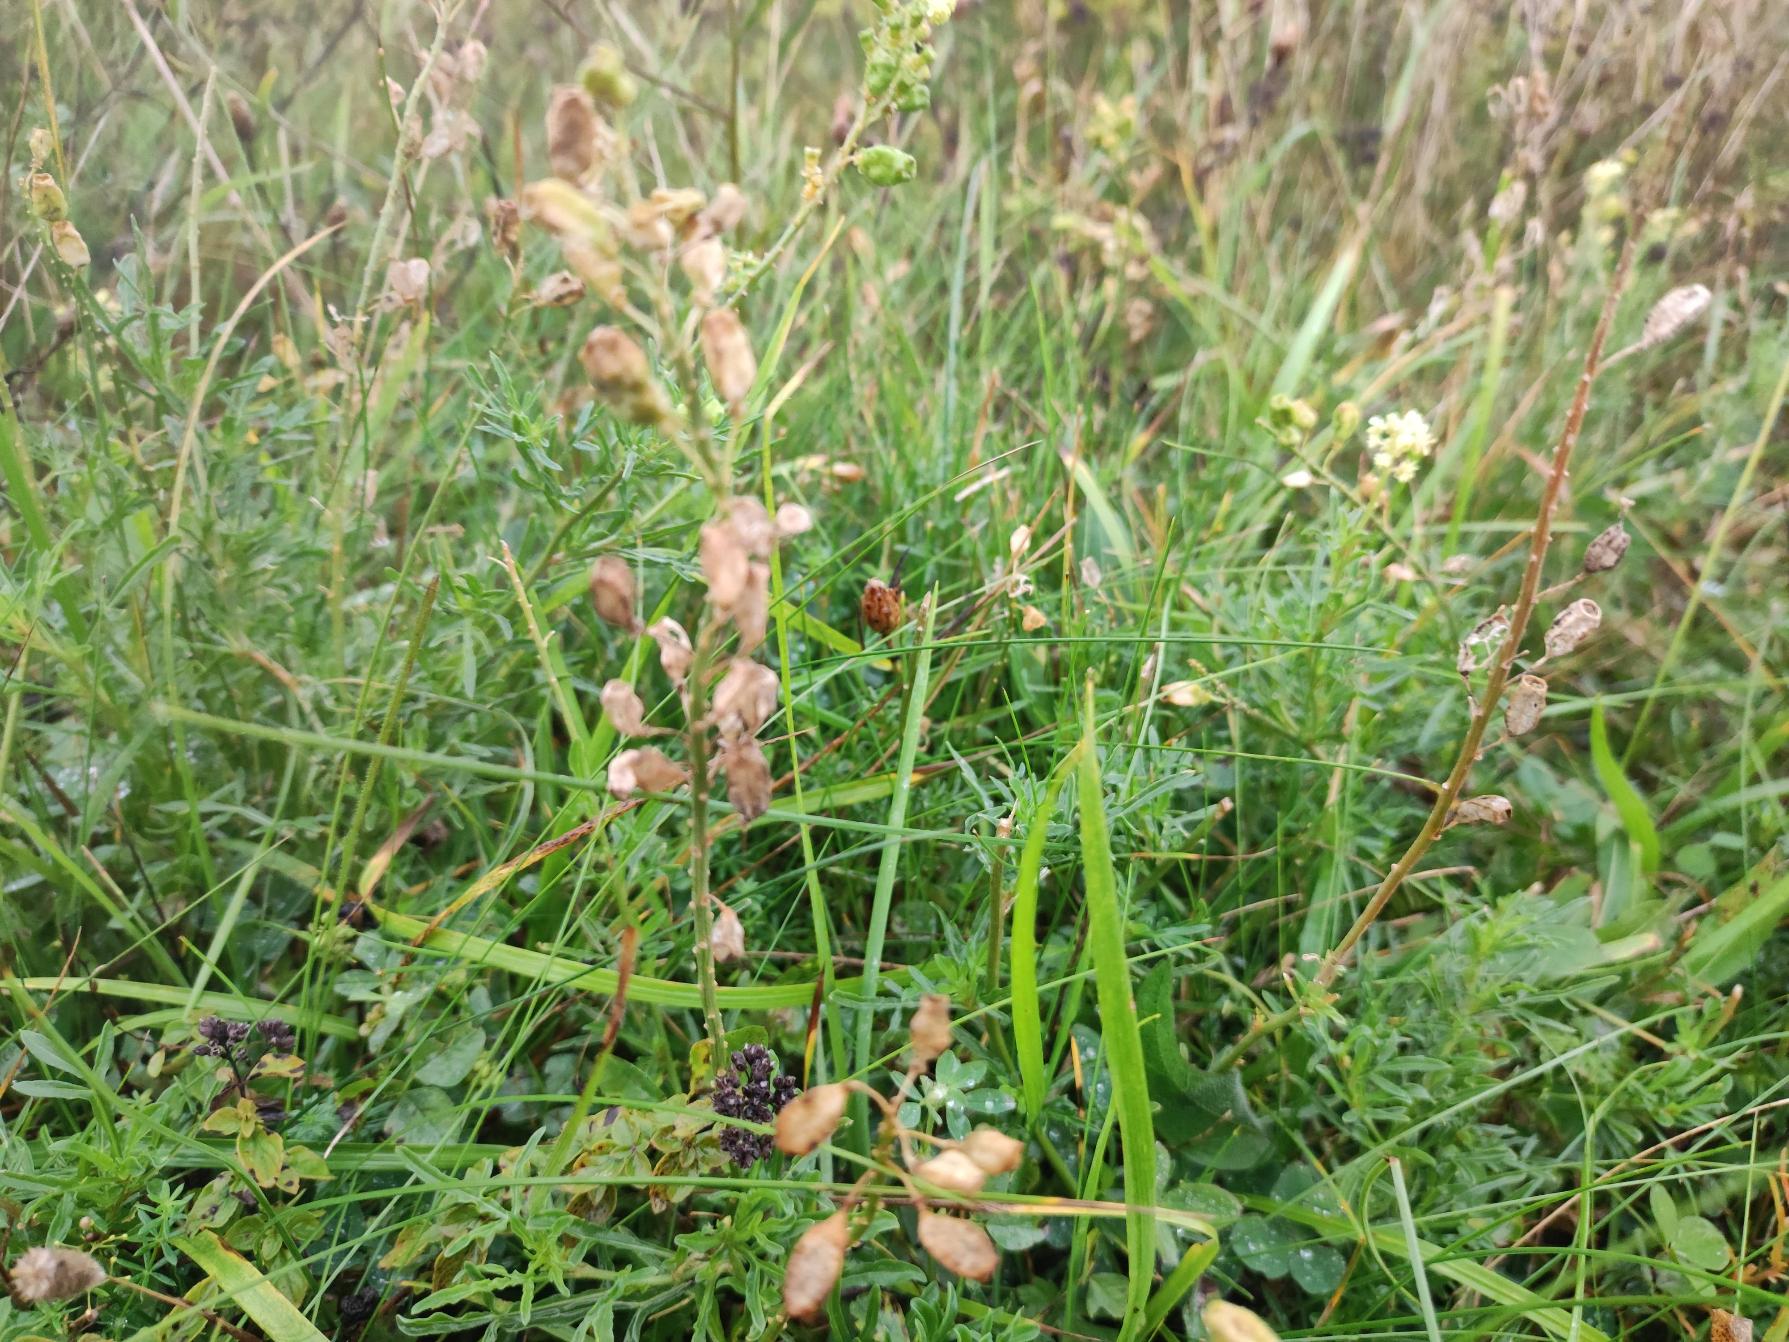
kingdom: Plantae
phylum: Tracheophyta
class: Magnoliopsida
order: Brassicales
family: Resedaceae
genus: Reseda
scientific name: Reseda lutea
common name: Gul reseda
